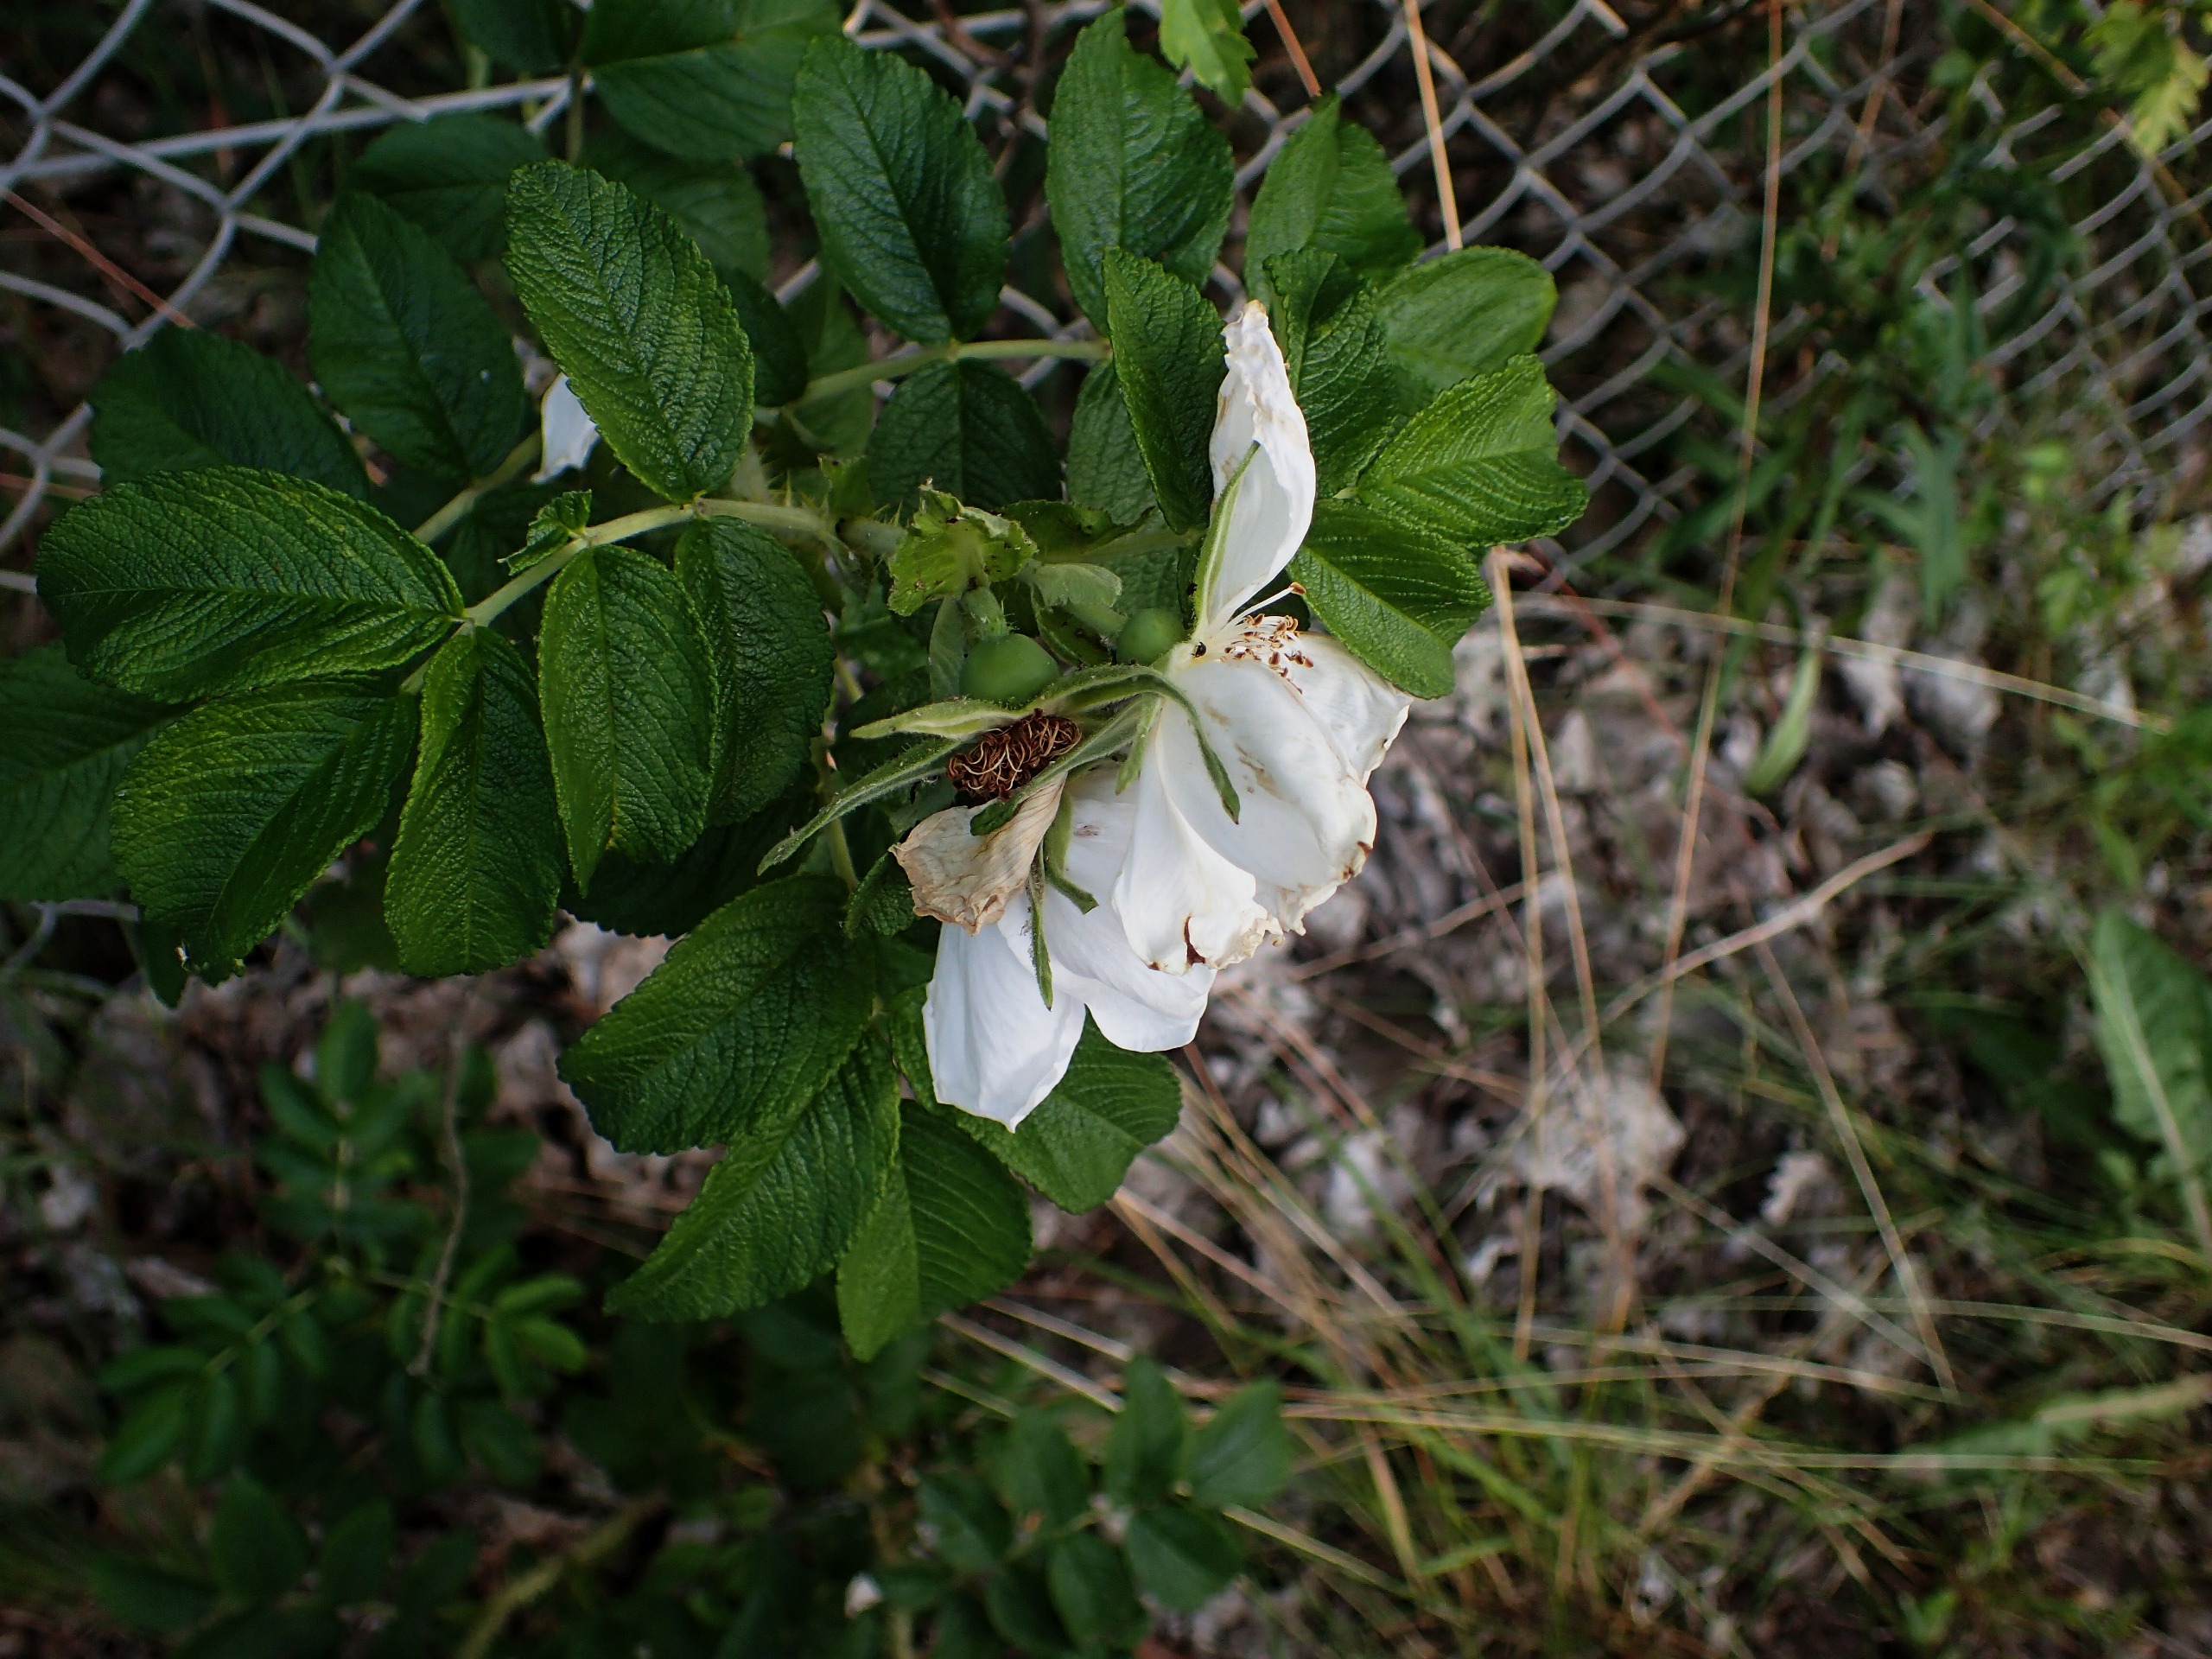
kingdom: Plantae
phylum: Tracheophyta
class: Magnoliopsida
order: Rosales
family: Rosaceae
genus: Rosa
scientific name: Rosa rugosa
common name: Rynket rose
